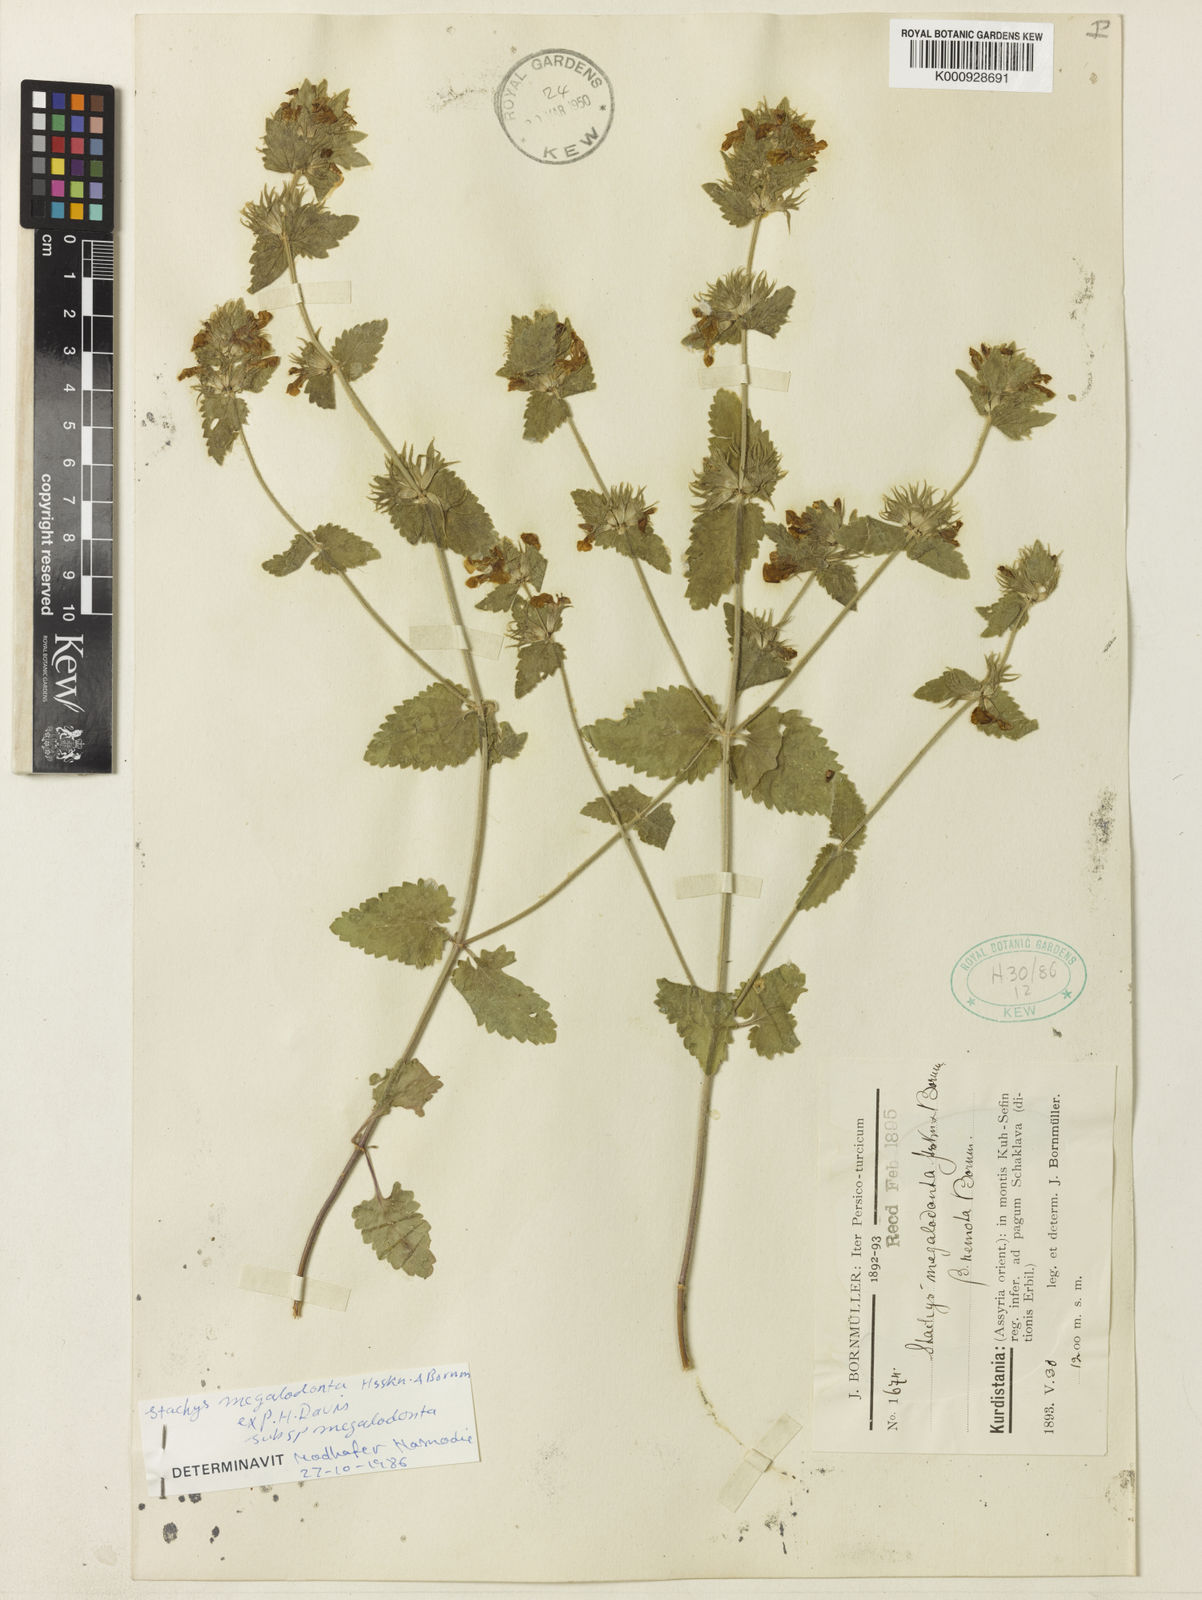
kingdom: Plantae
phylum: Tracheophyta
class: Magnoliopsida
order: Lamiales
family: Lamiaceae
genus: Stachys
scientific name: Stachys megalodonta
